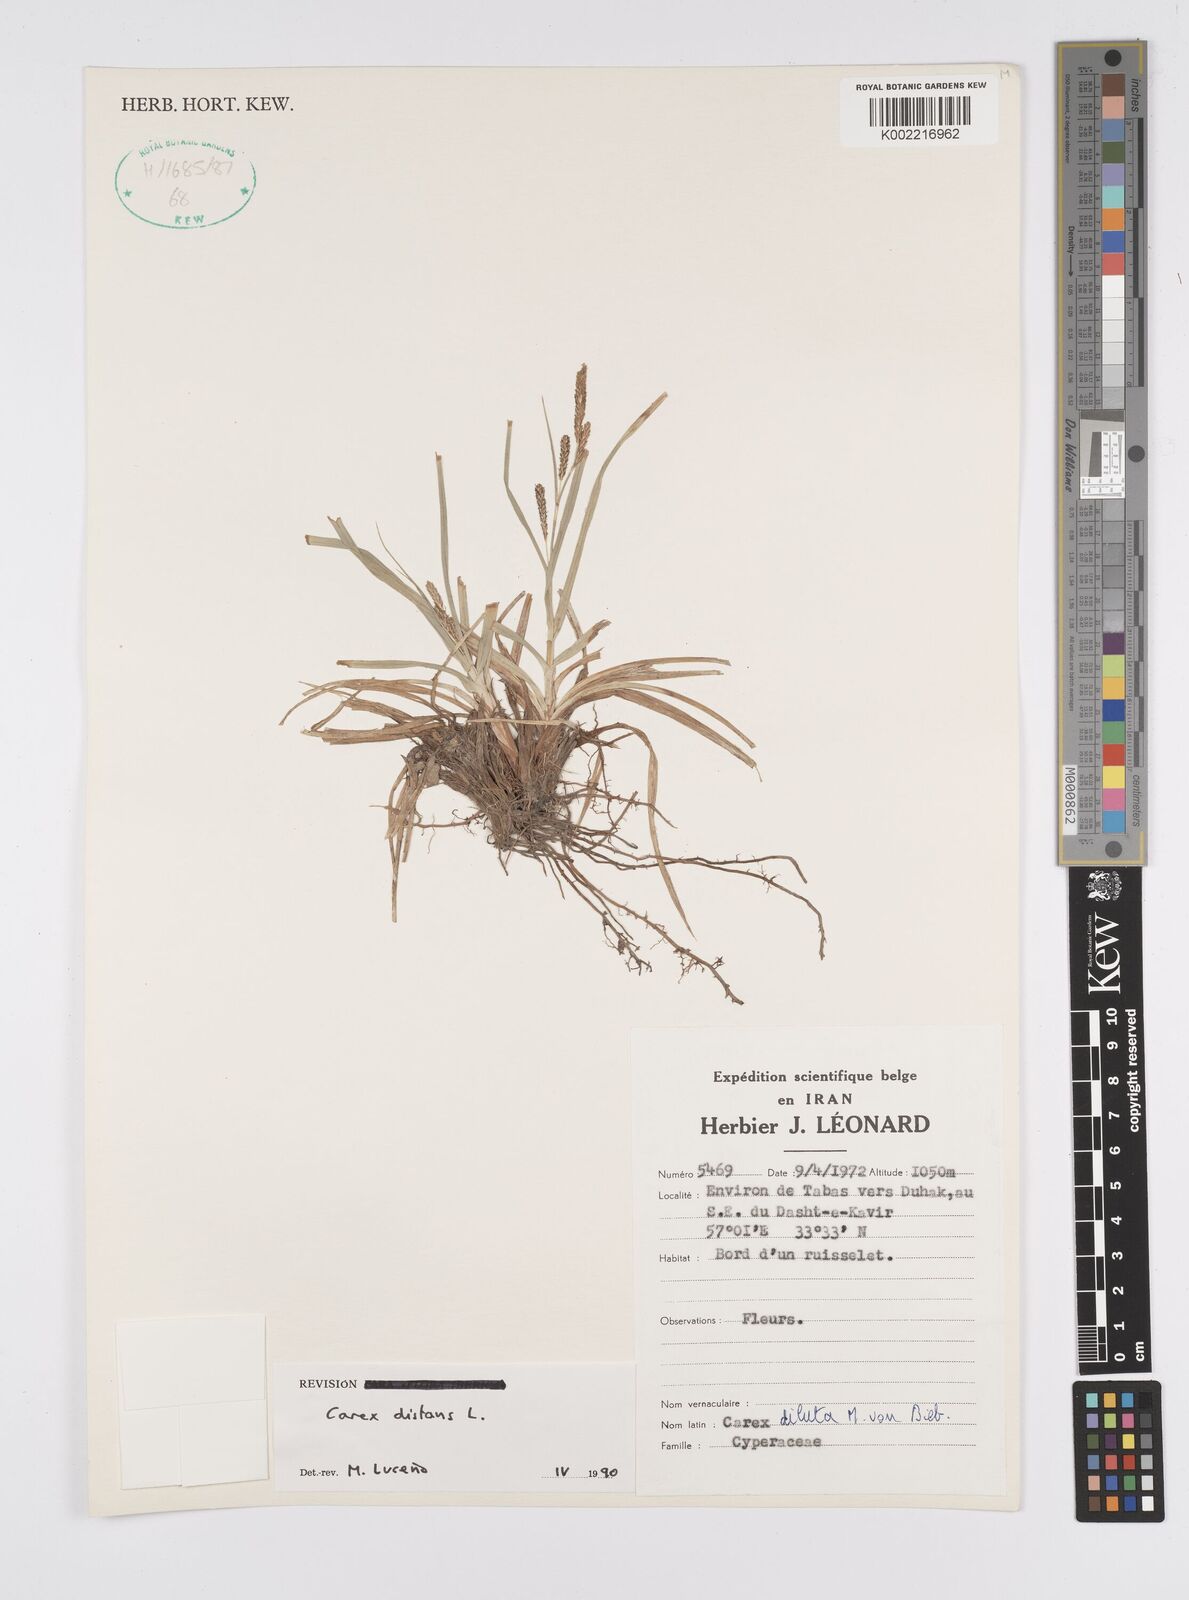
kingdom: Plantae
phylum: Tracheophyta
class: Liliopsida
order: Poales
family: Cyperaceae
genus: Carex
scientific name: Carex distans
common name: Distant sedge
